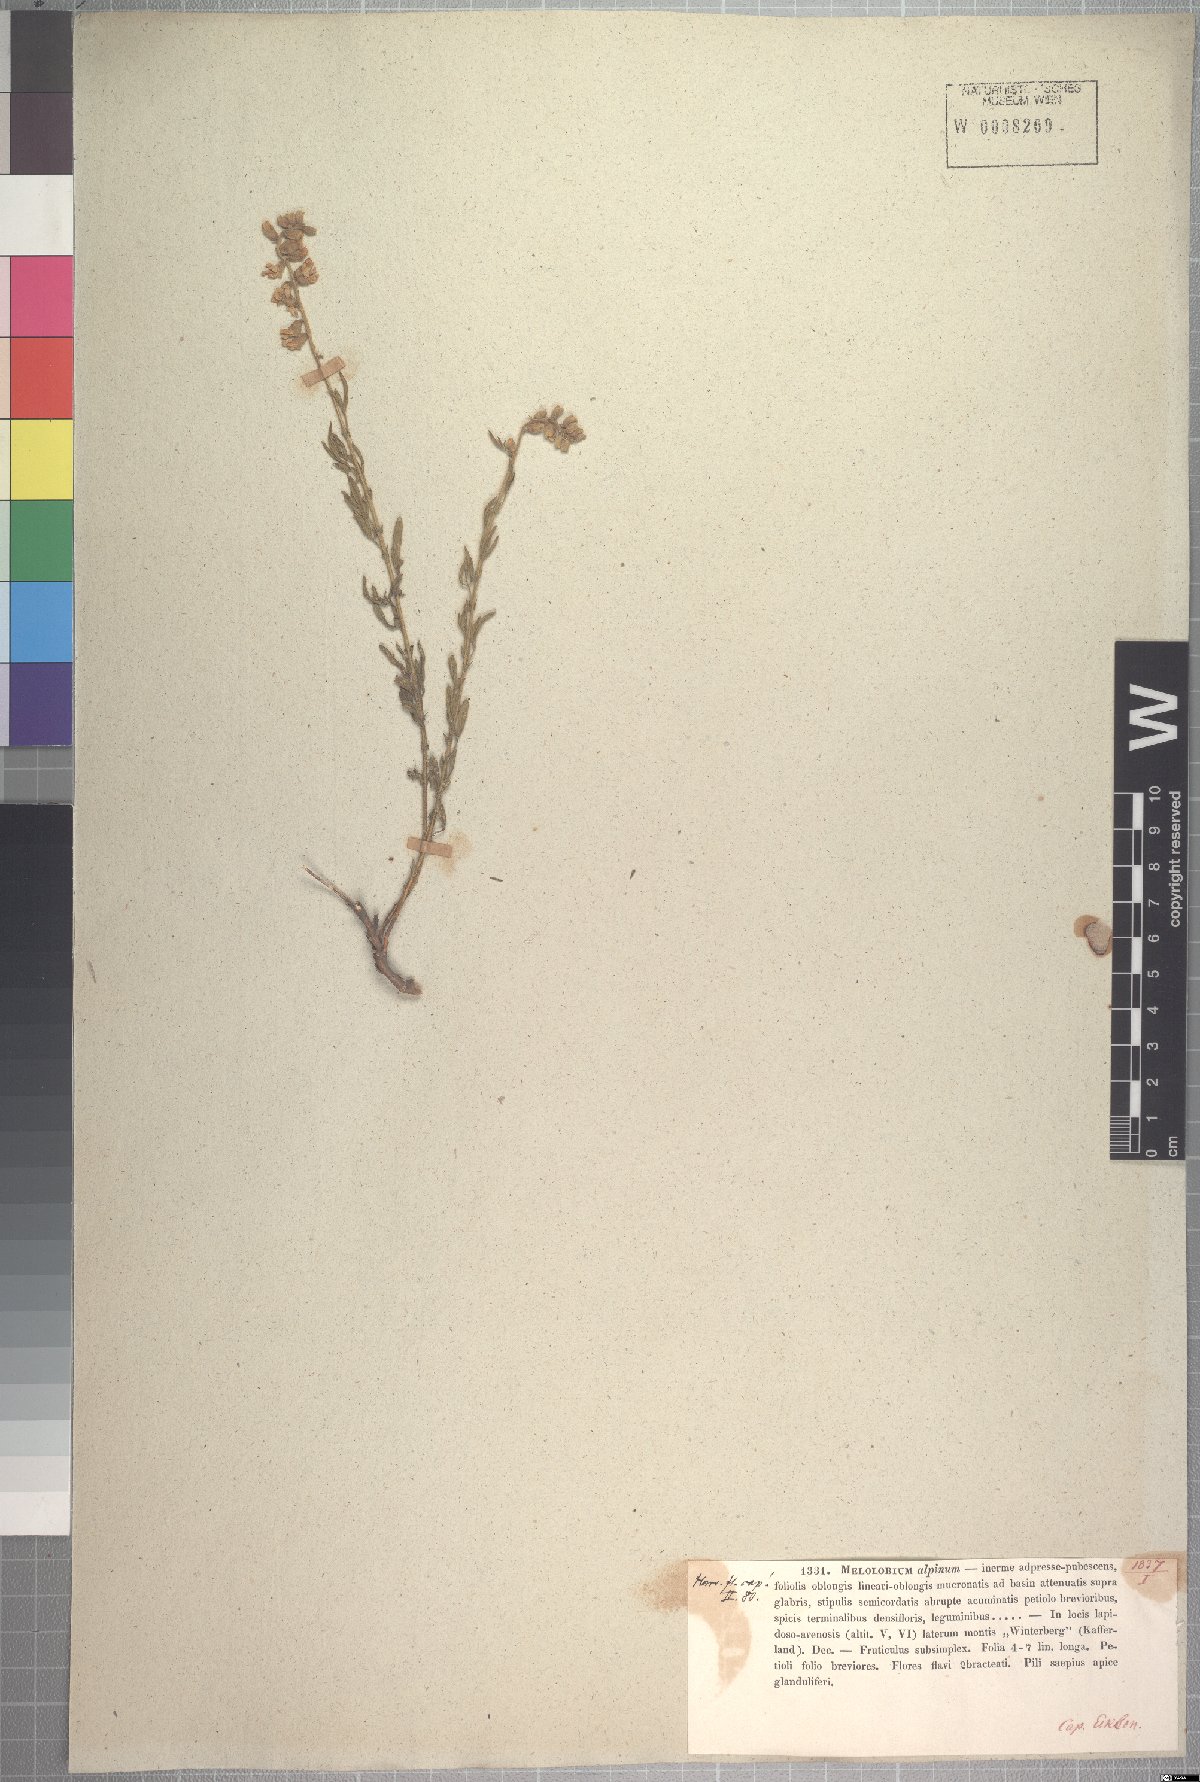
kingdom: Plantae
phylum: Tracheophyta
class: Magnoliopsida
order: Fabales
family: Fabaceae
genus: Melolobium
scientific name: Melolobium alpinum
